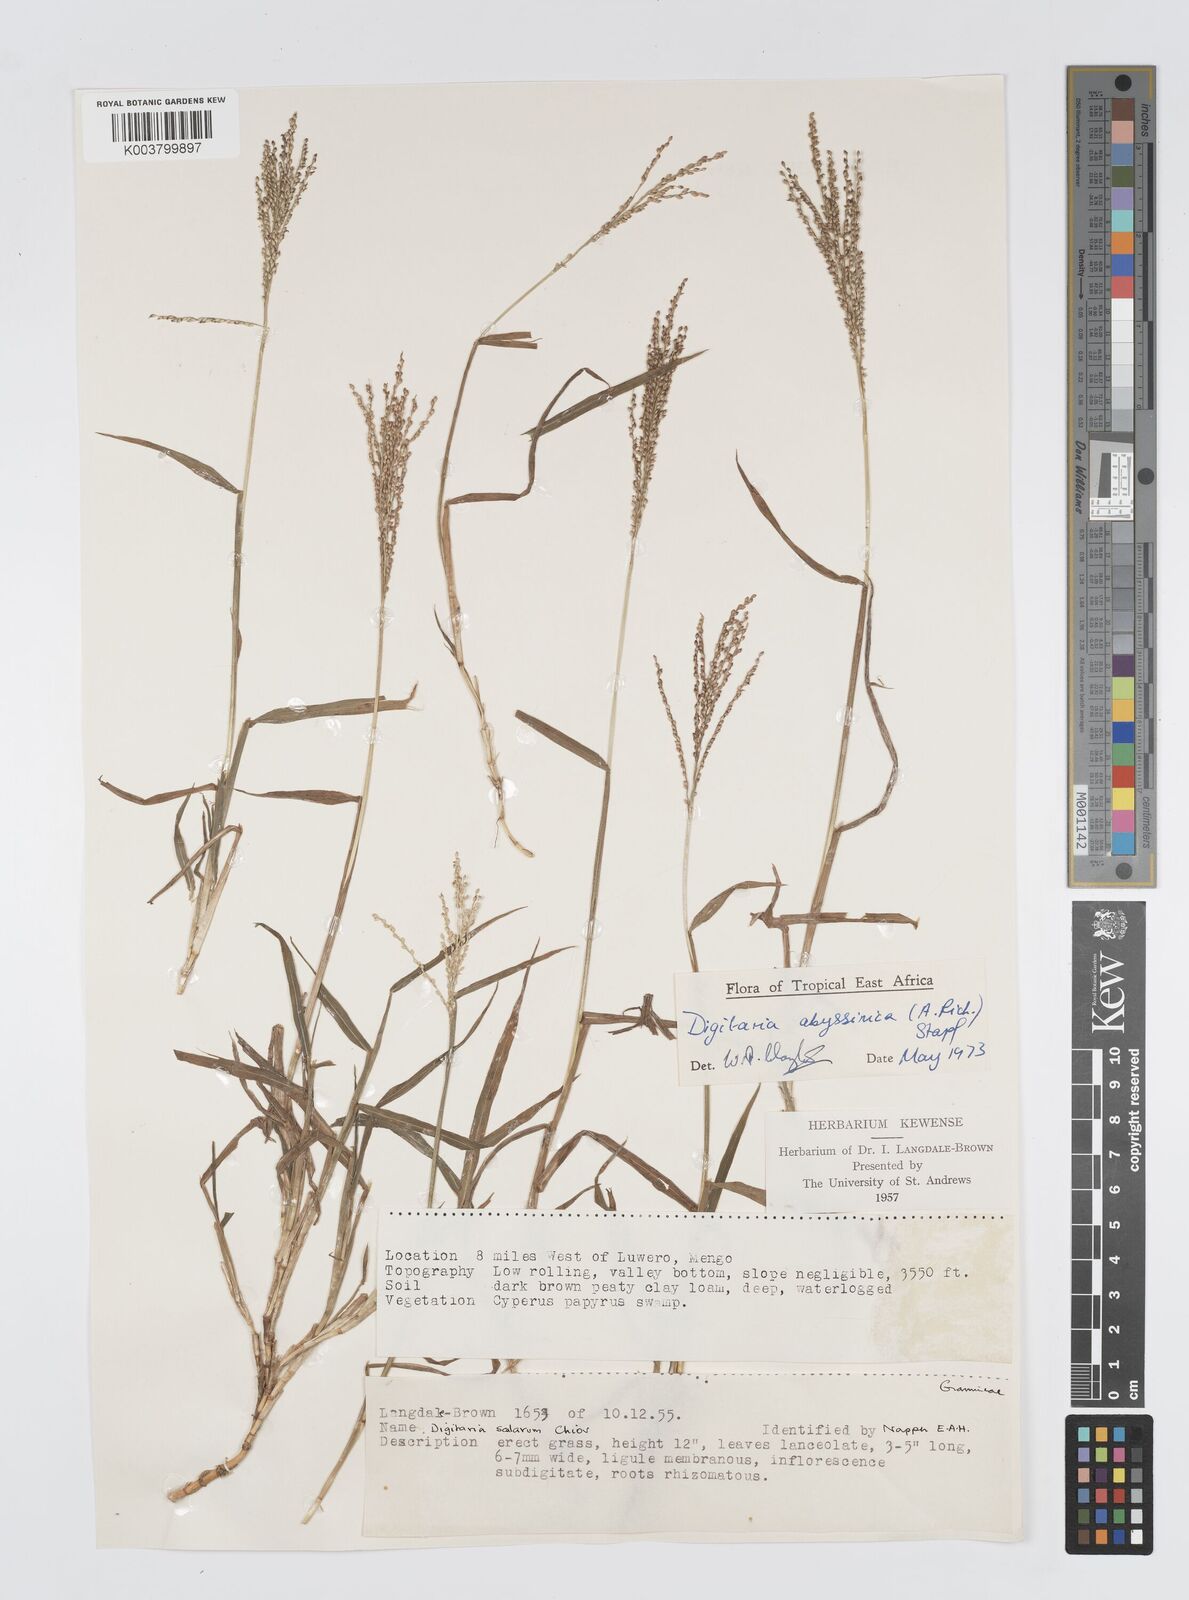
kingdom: Plantae
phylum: Tracheophyta
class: Liliopsida
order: Poales
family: Poaceae
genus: Digitaria
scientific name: Digitaria abyssinica
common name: African couchgrass
